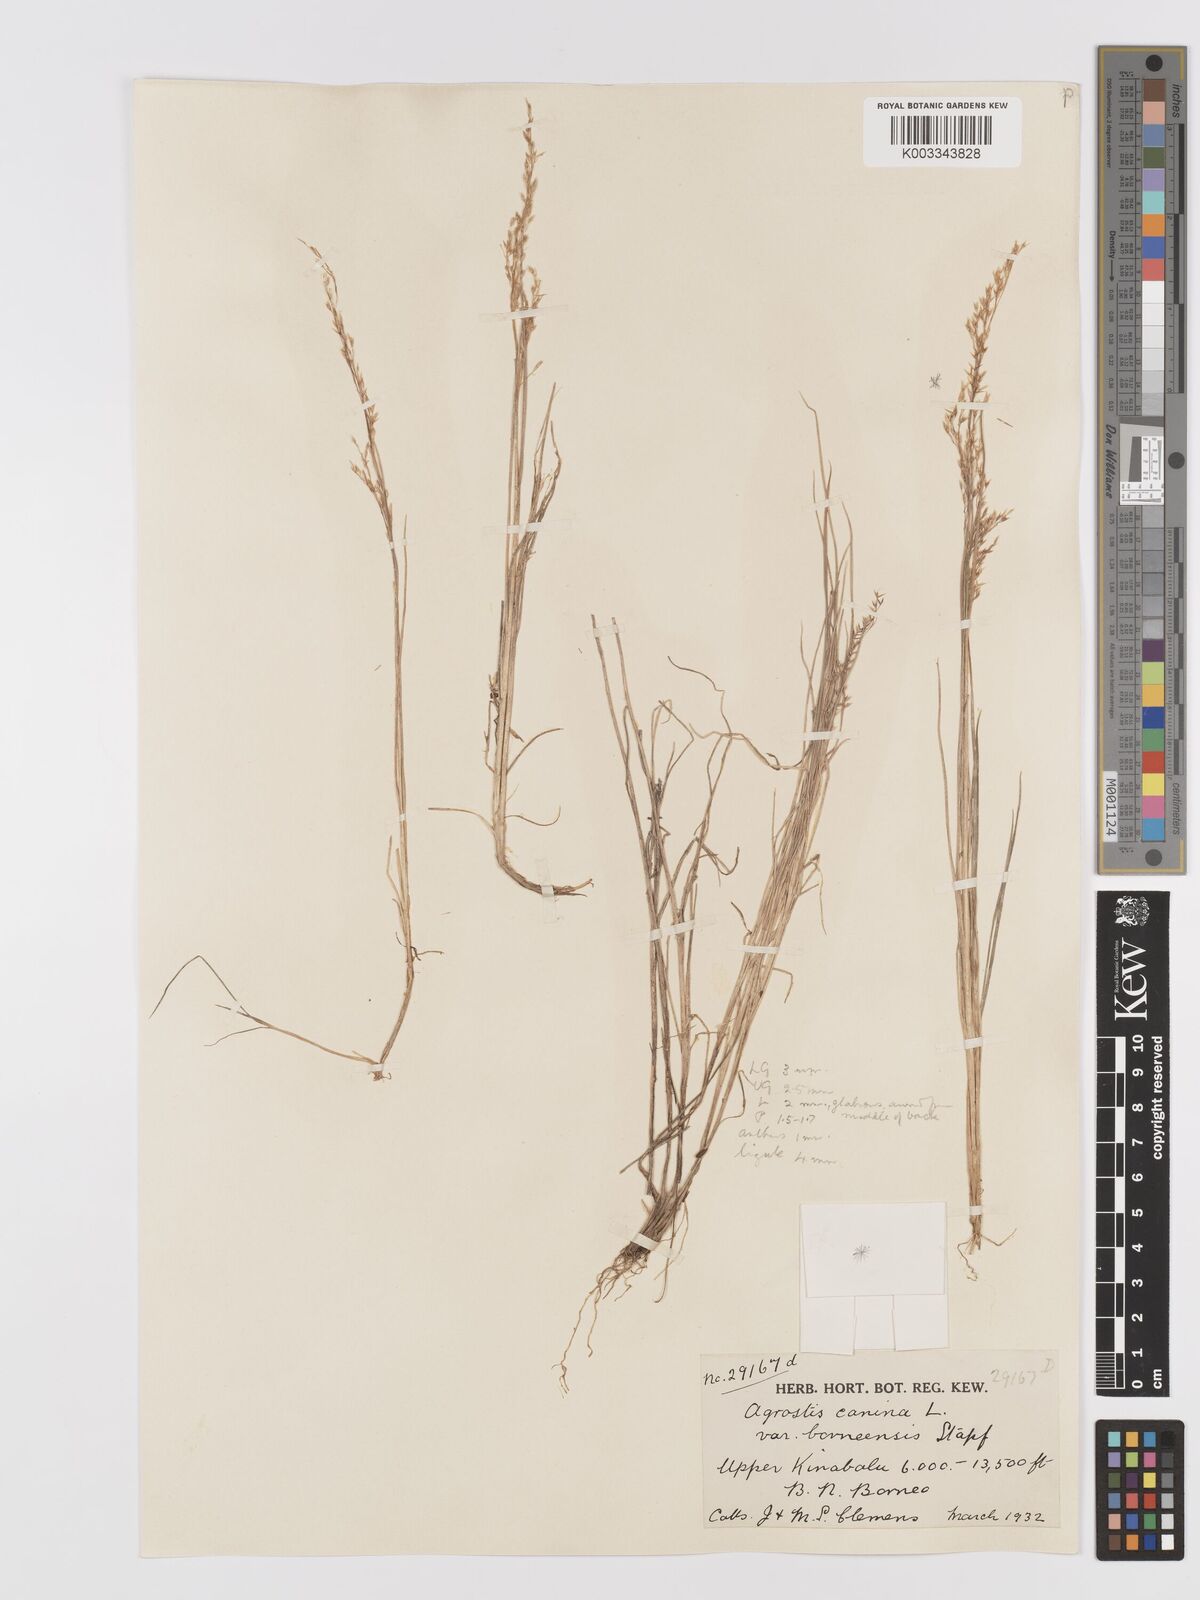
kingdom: Plantae
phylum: Tracheophyta
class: Liliopsida
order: Poales
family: Poaceae
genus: Agrostis
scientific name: Agrostis infirma
